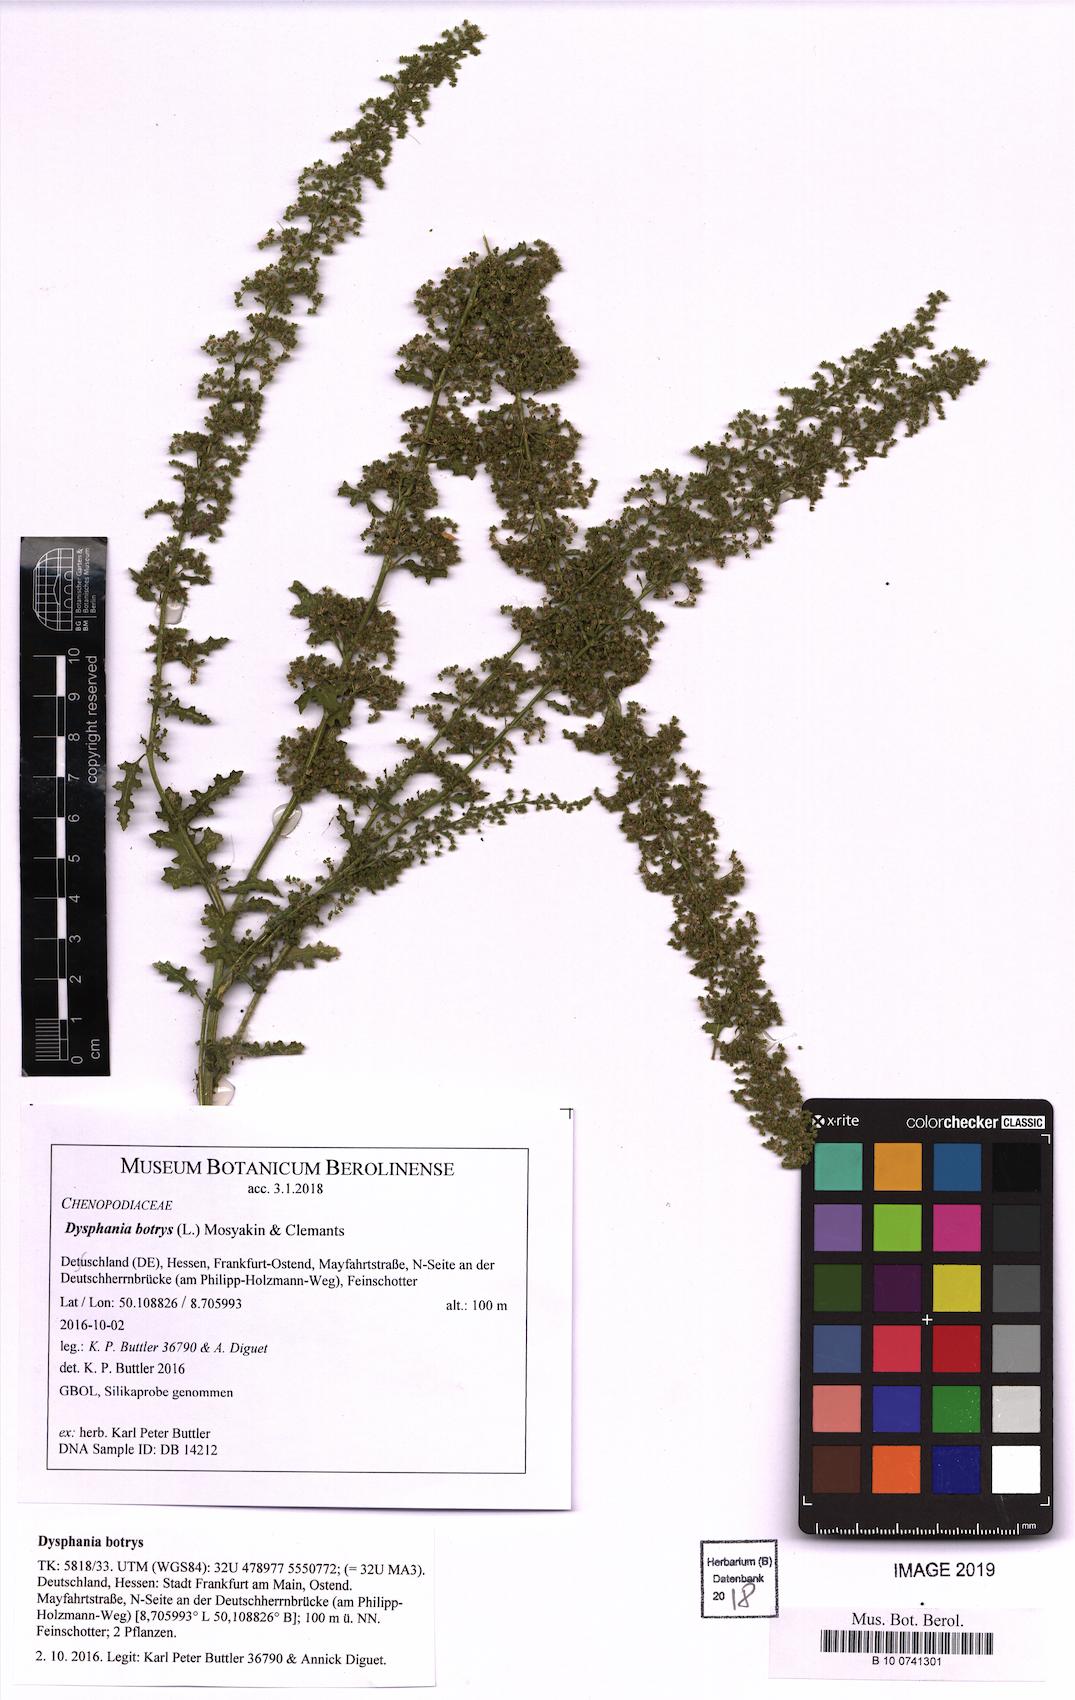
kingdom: Plantae
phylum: Tracheophyta
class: Magnoliopsida
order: Caryophyllales
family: Amaranthaceae
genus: Dysphania
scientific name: Dysphania botrys
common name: Feather-geranium
